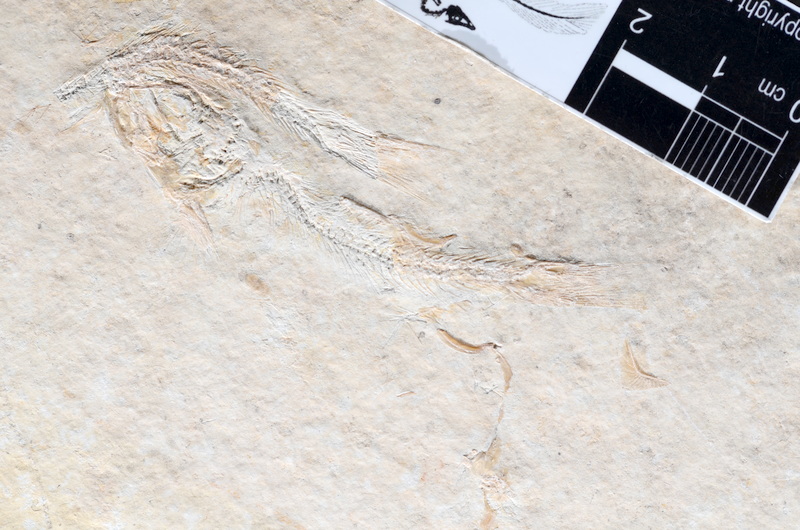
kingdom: Animalia
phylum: Chordata
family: Ascalaboidae
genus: Tharsis
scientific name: Tharsis dubius
